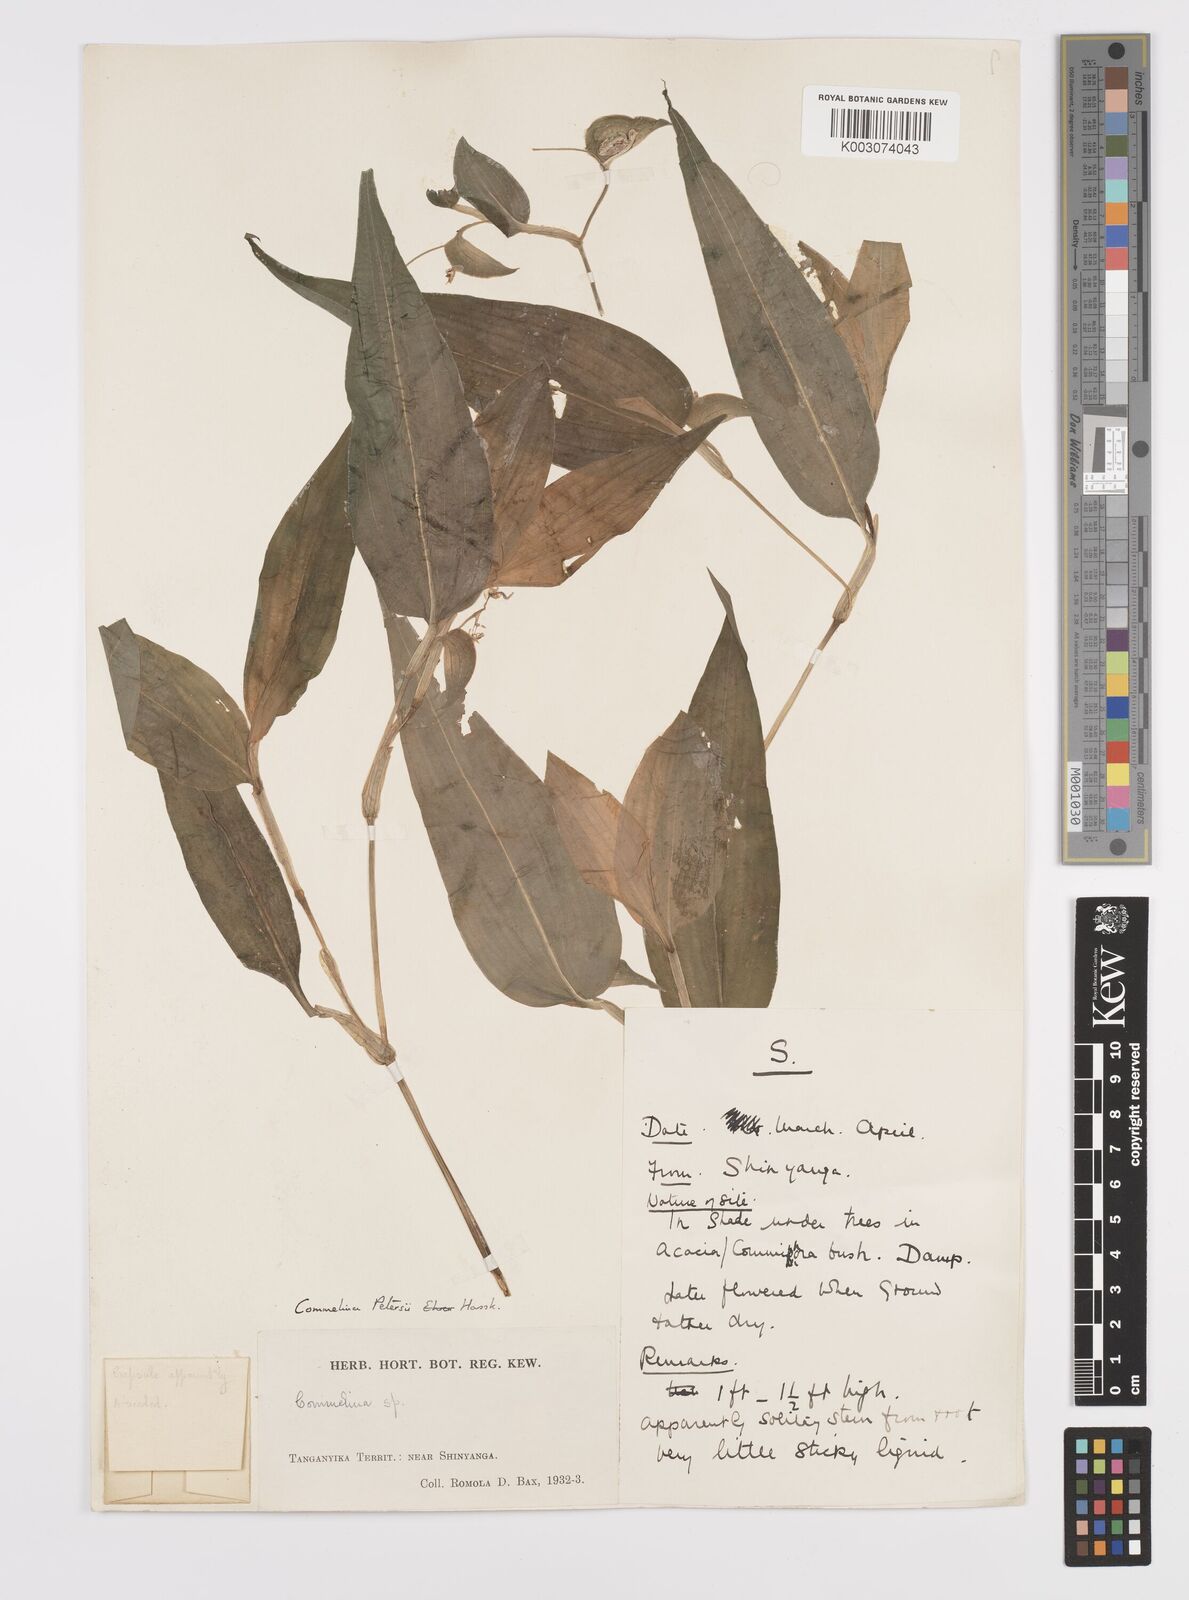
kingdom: Plantae
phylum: Tracheophyta
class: Liliopsida
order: Commelinales
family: Commelinaceae
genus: Commelina
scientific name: Commelina petersii
